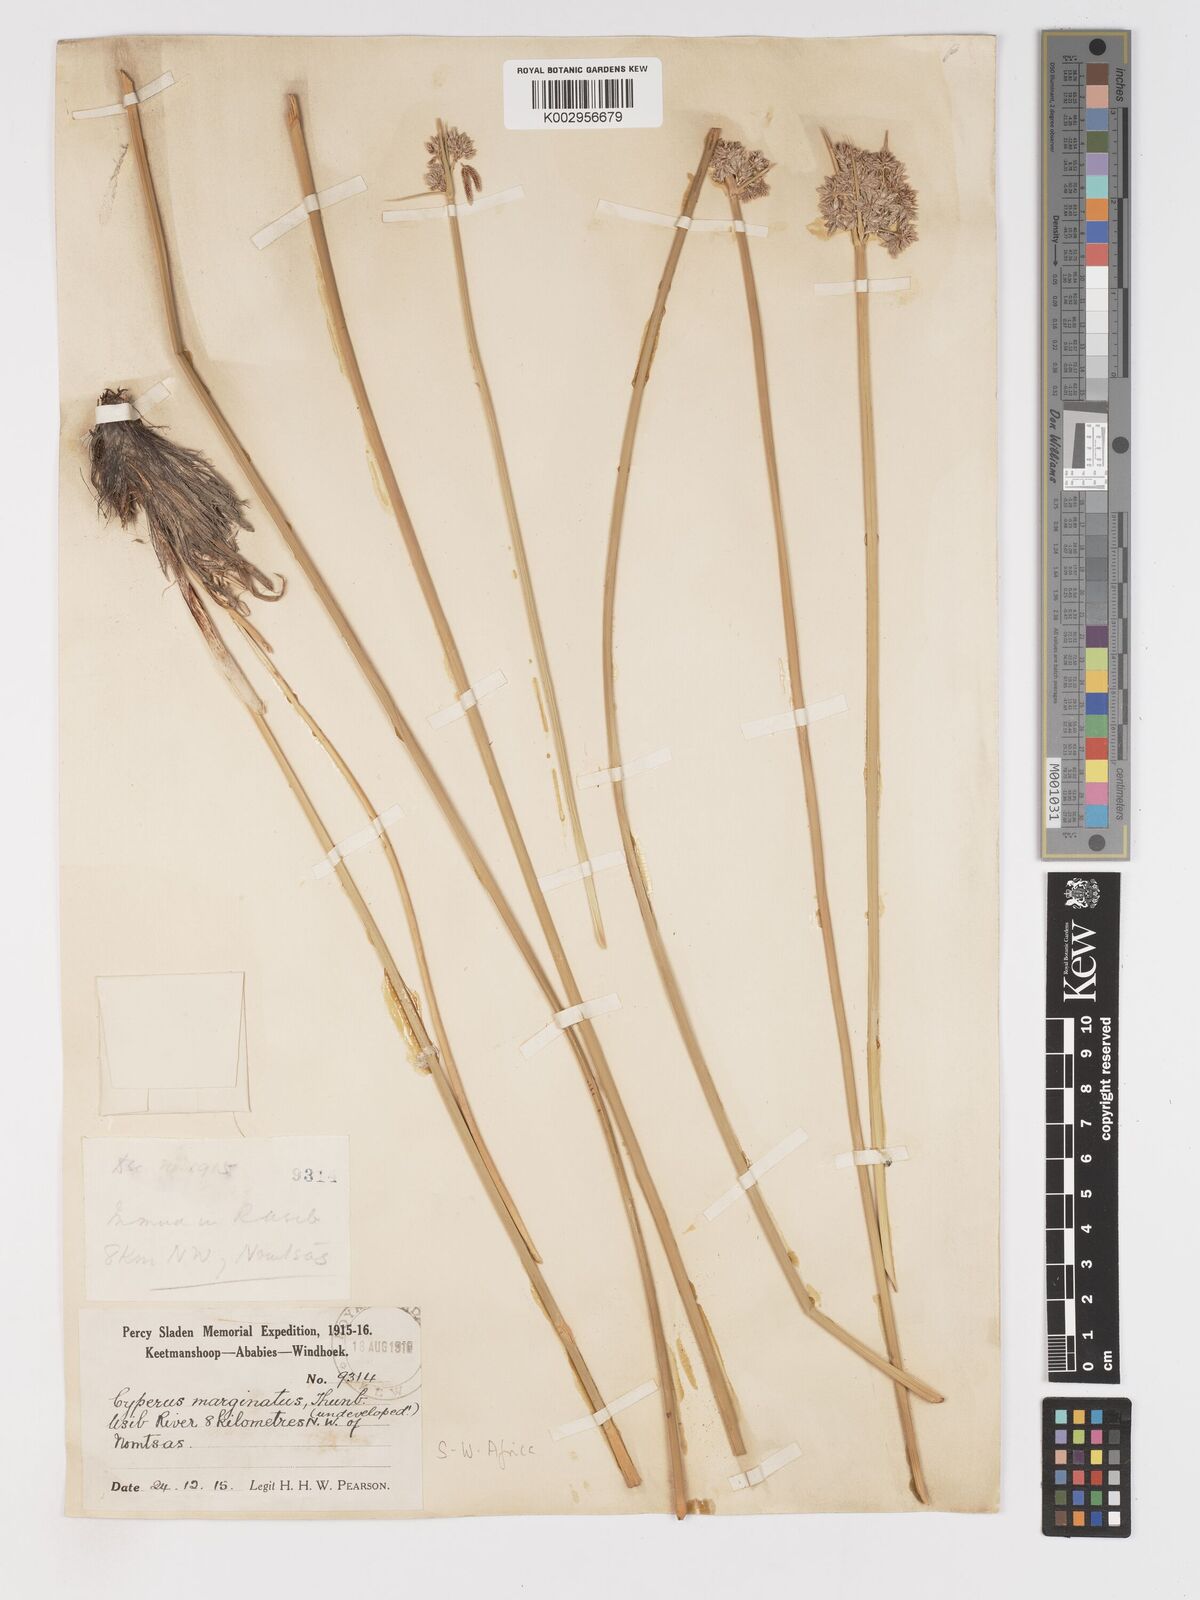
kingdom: Plantae
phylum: Tracheophyta
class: Liliopsida
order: Poales
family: Cyperaceae
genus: Cyperus
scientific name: Cyperus marginatus
